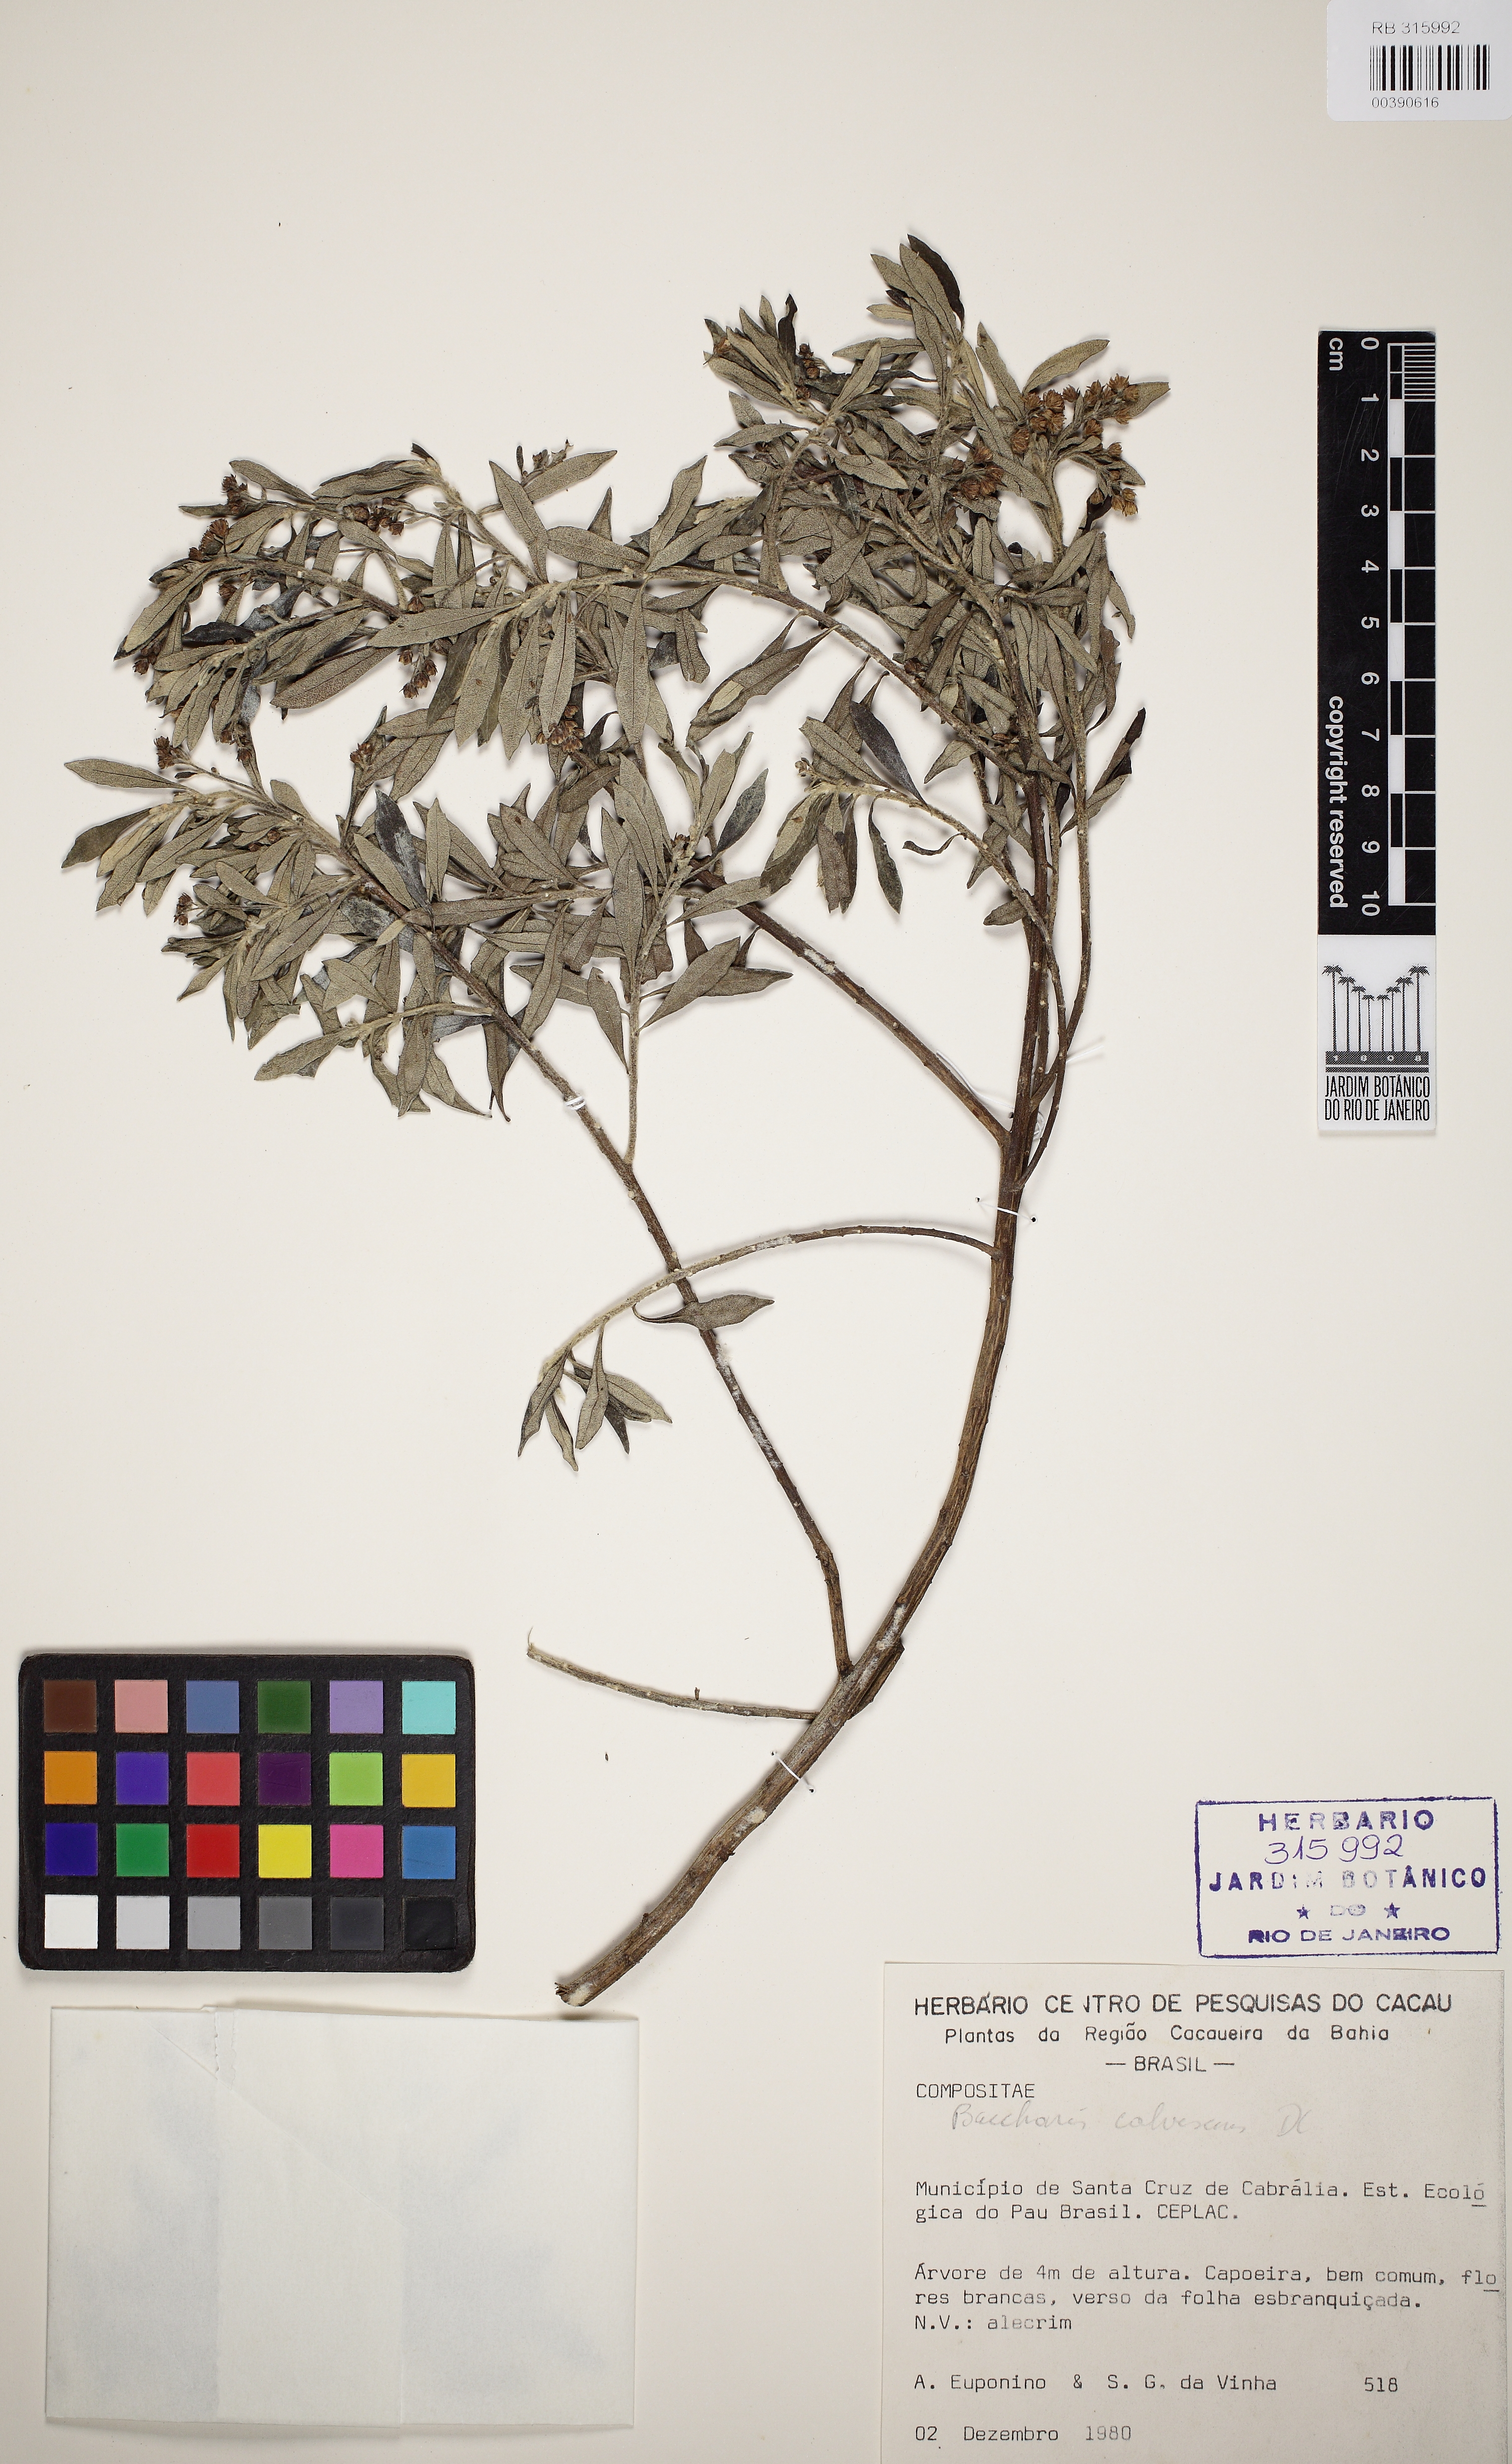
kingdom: Plantae
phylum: Tracheophyta
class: Magnoliopsida
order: Asterales
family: Asteraceae
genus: Baccharis
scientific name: Baccharis calvescens
